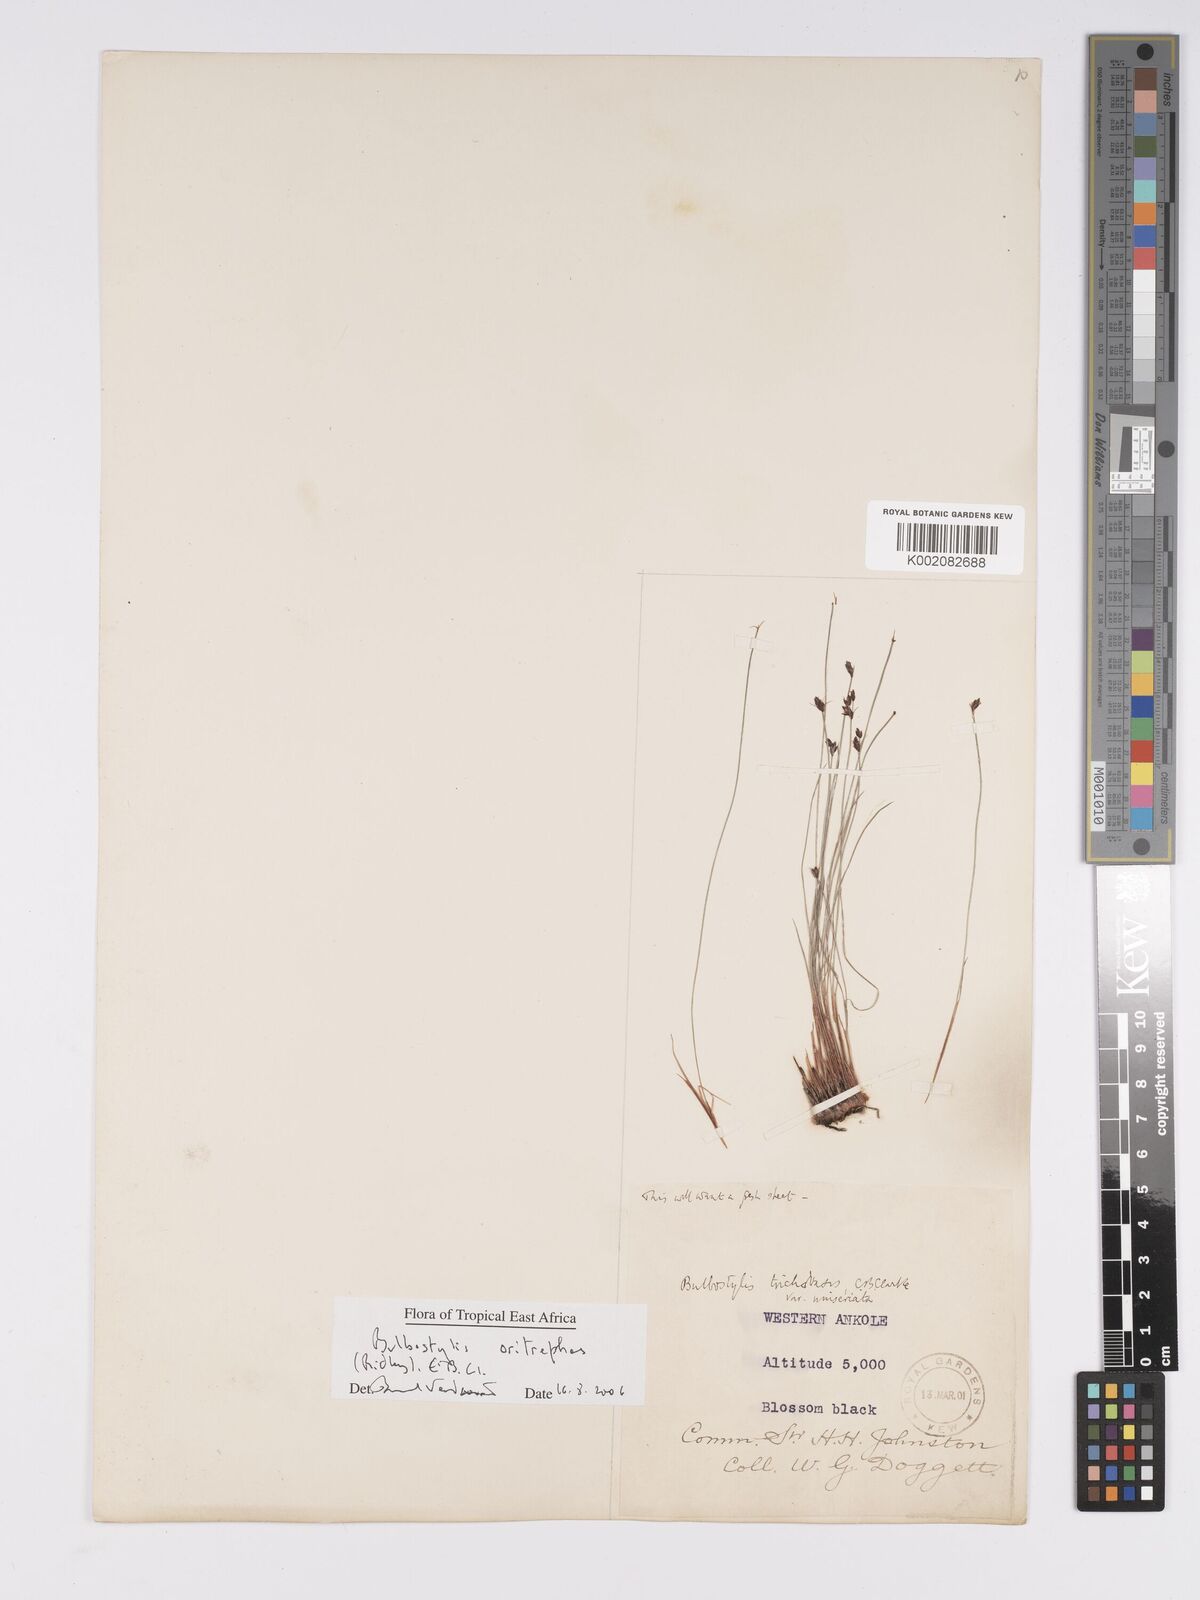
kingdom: Plantae
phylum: Tracheophyta
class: Liliopsida
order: Poales
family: Cyperaceae
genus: Bulbostylis
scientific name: Bulbostylis oritrephes
